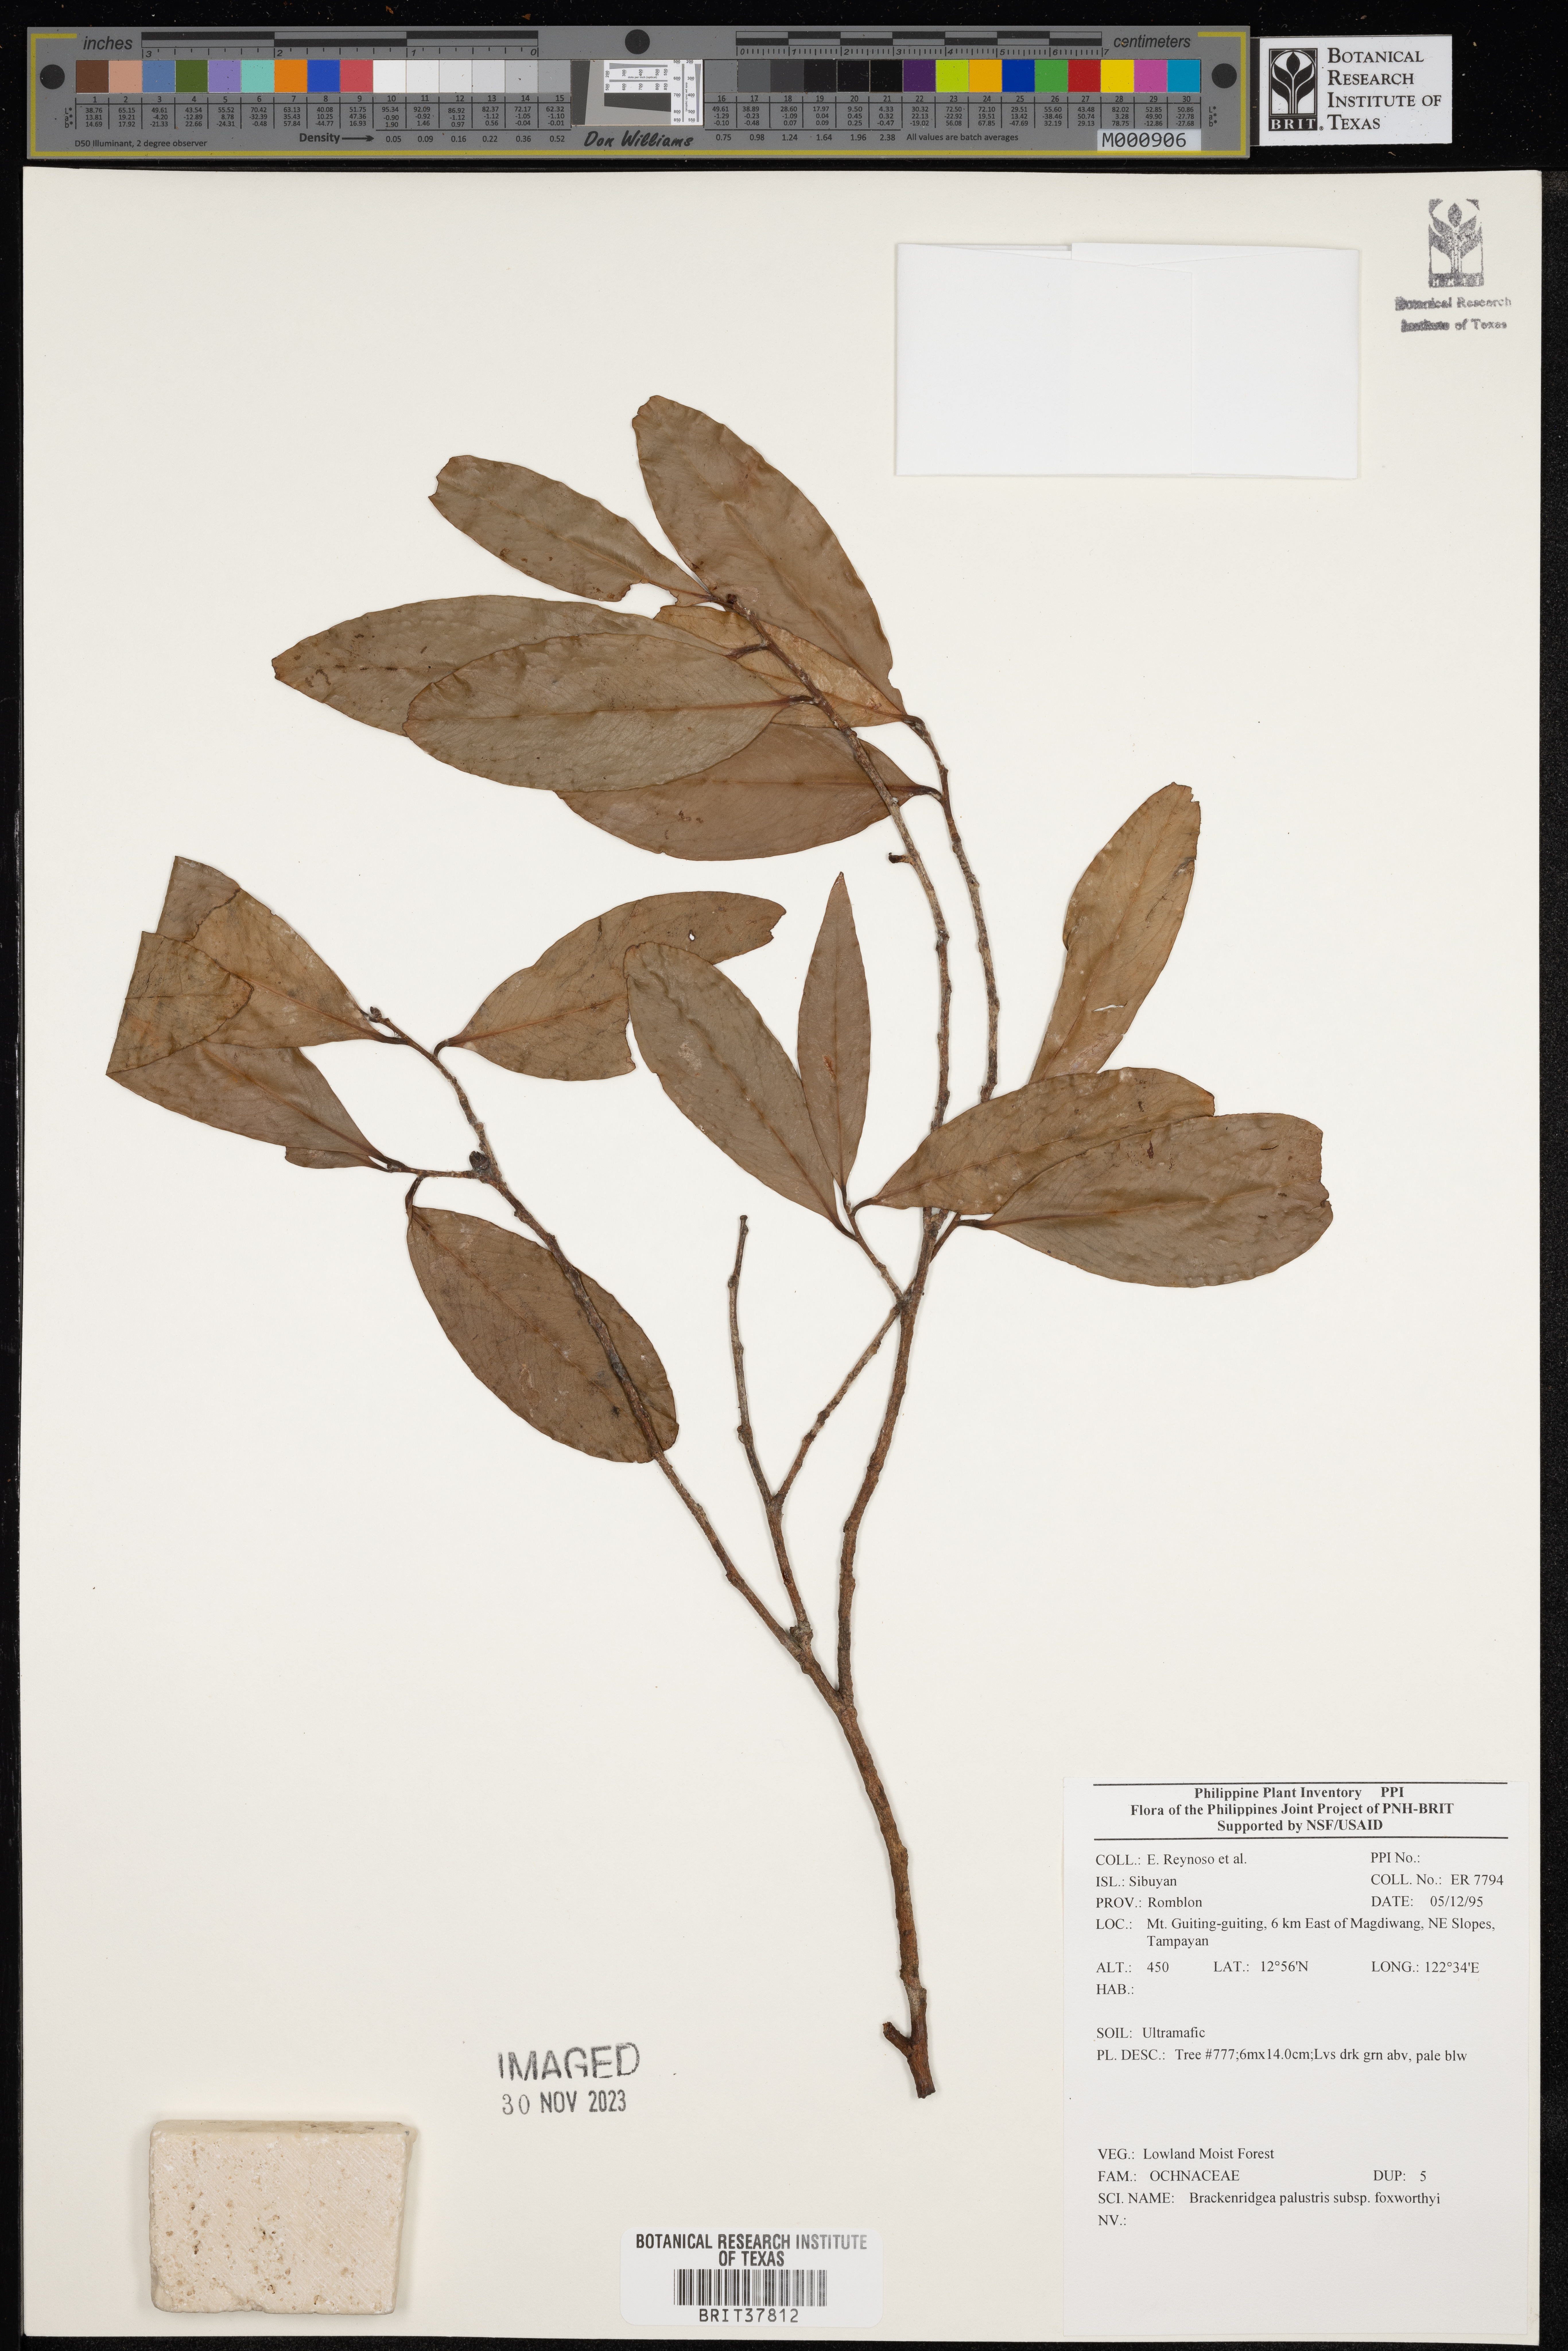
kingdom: Plantae
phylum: Tracheophyta
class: Magnoliopsida
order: Malpighiales
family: Ochnaceae
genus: Brackenridgea
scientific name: Brackenridgea palustris
